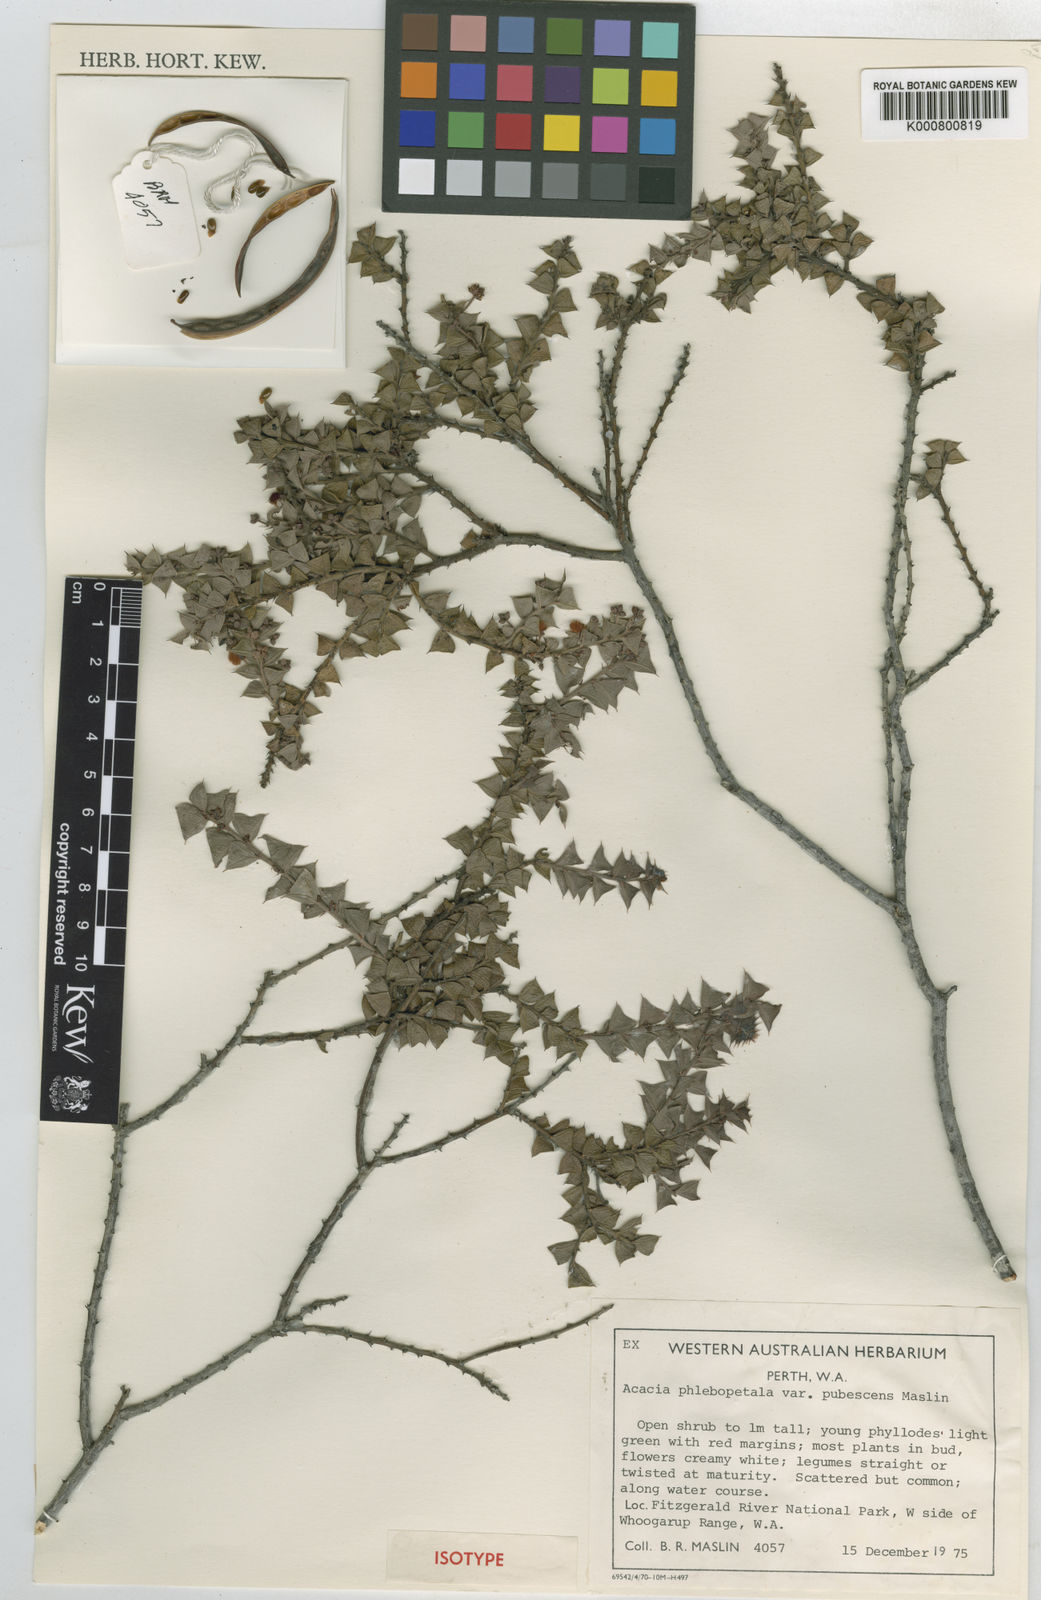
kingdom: Plantae
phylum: Tracheophyta
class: Magnoliopsida
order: Fabales
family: Fabaceae
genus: Acacia
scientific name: Acacia phlebopetala
